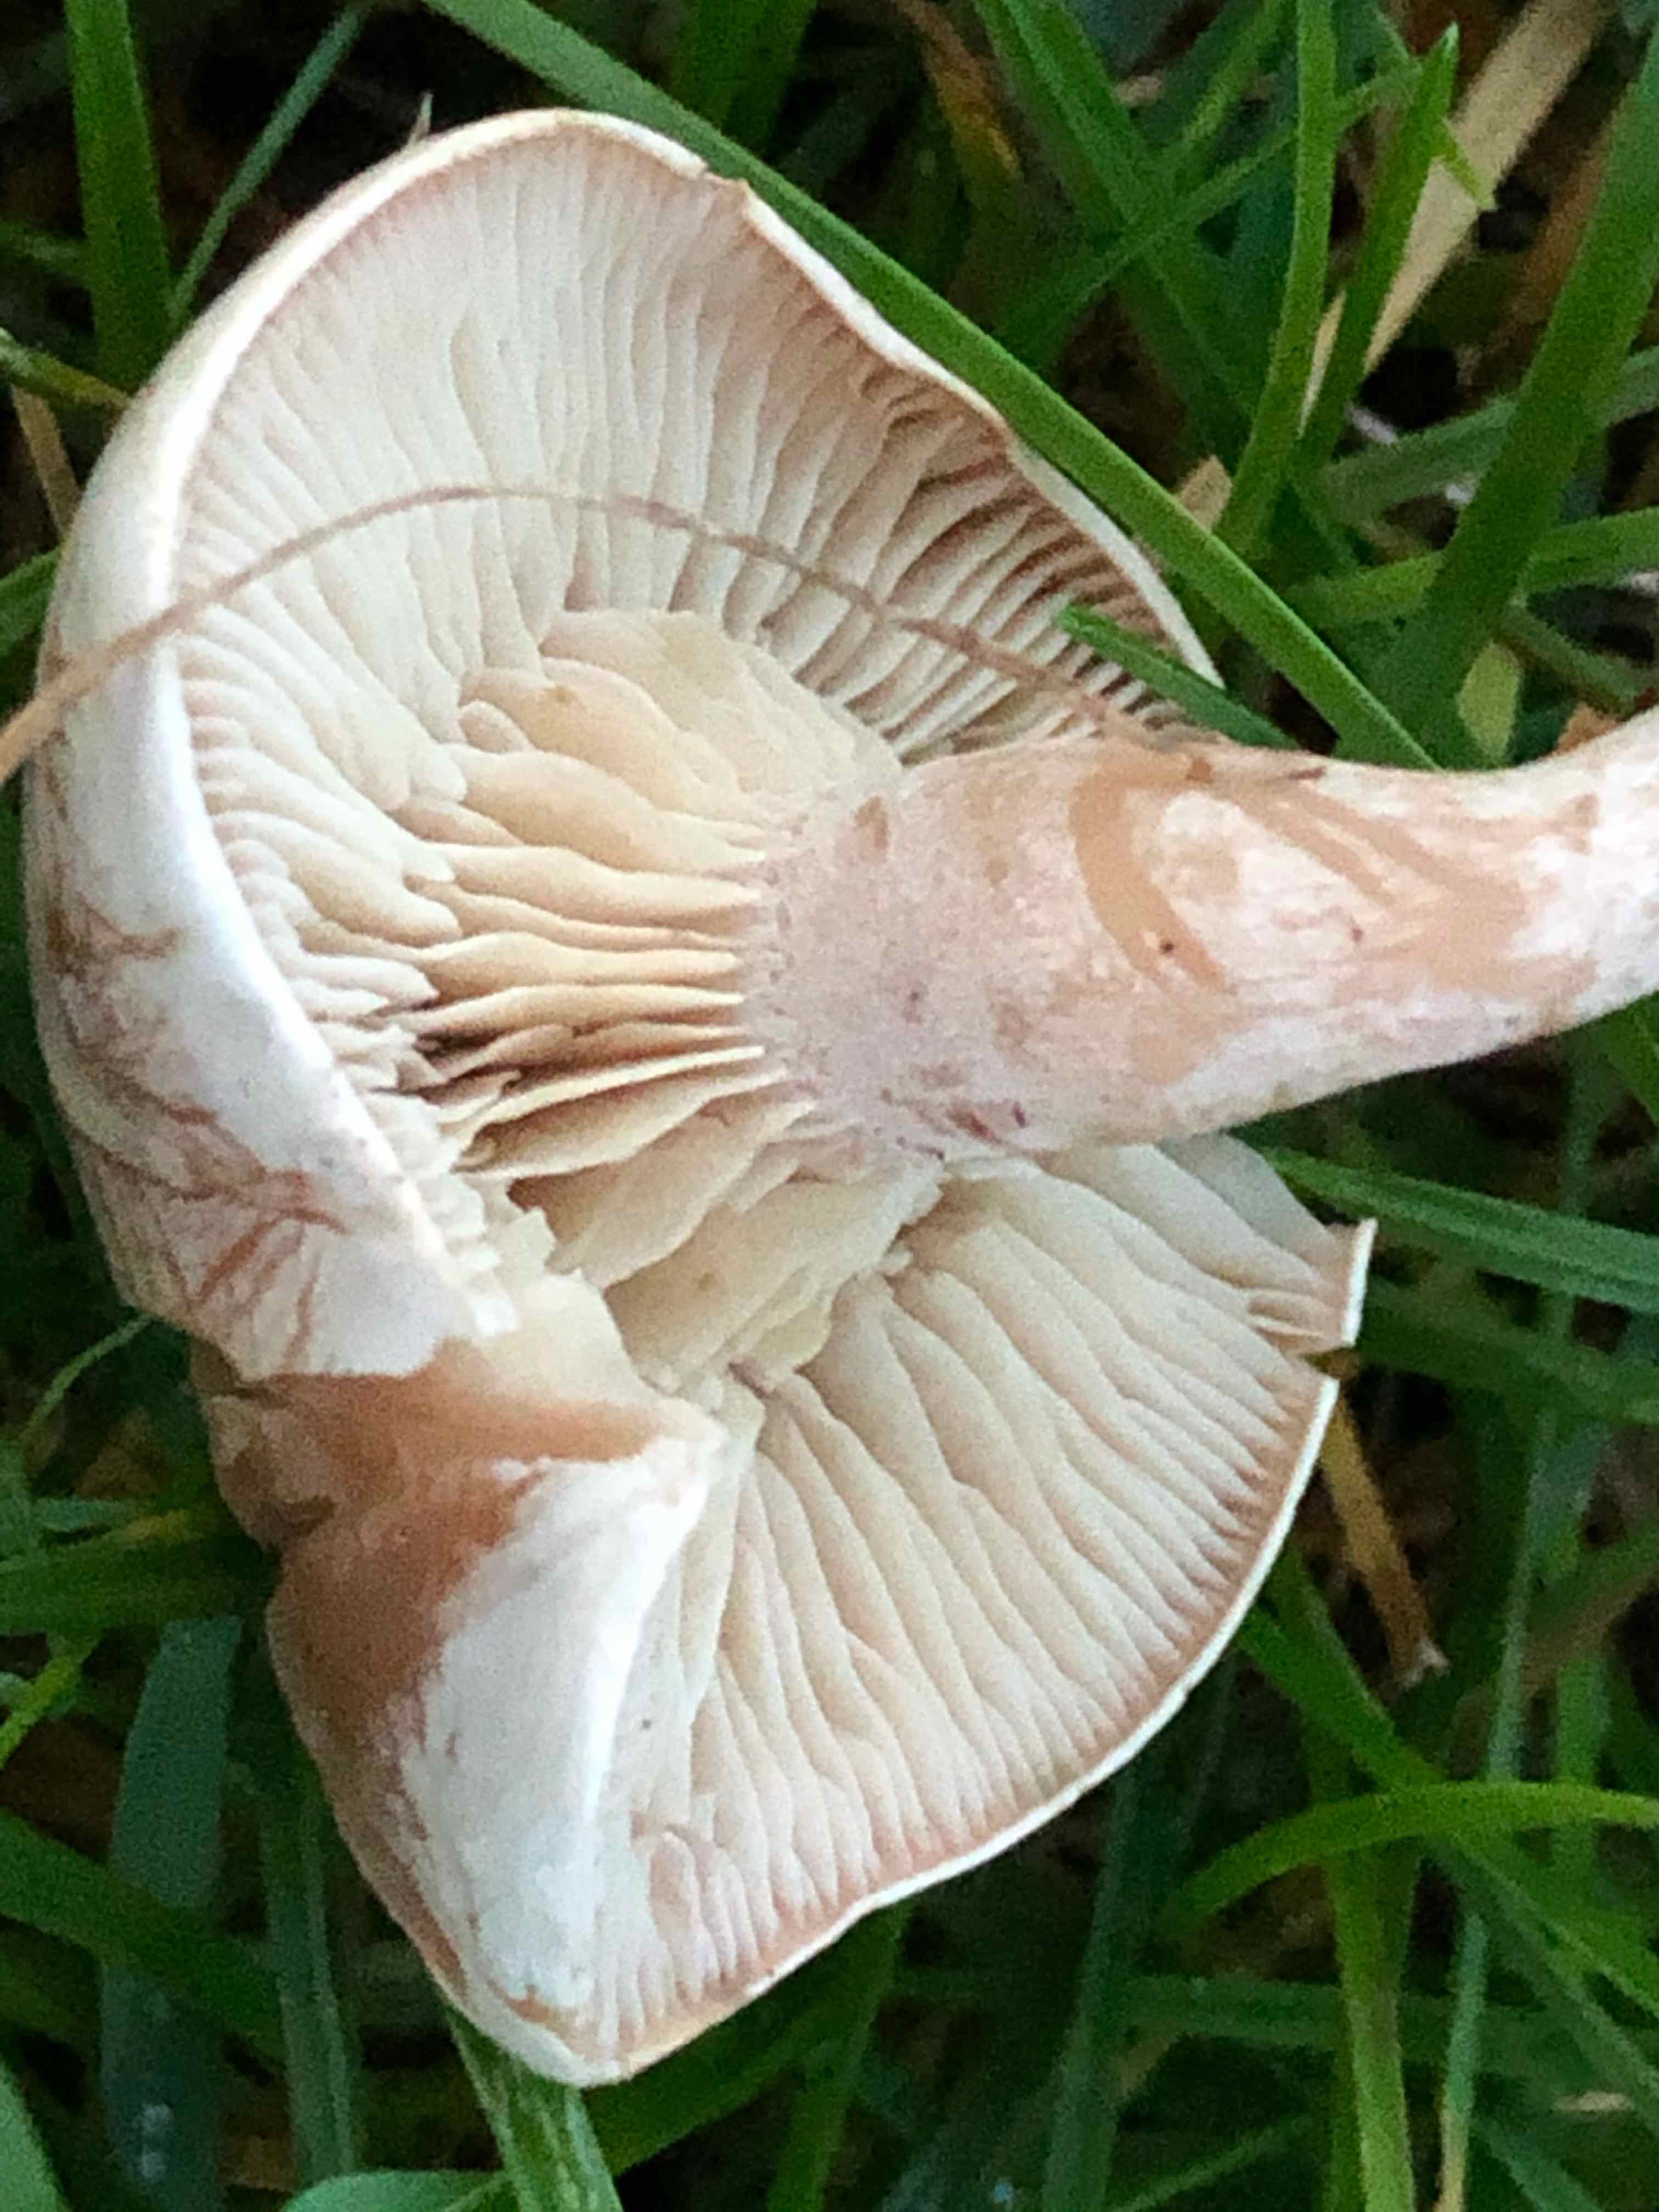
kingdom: Fungi
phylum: Basidiomycota
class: Agaricomycetes
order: Agaricales
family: Tricholomataceae
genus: Clitocybe
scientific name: Clitocybe rivulosa
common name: eng-tragthat
